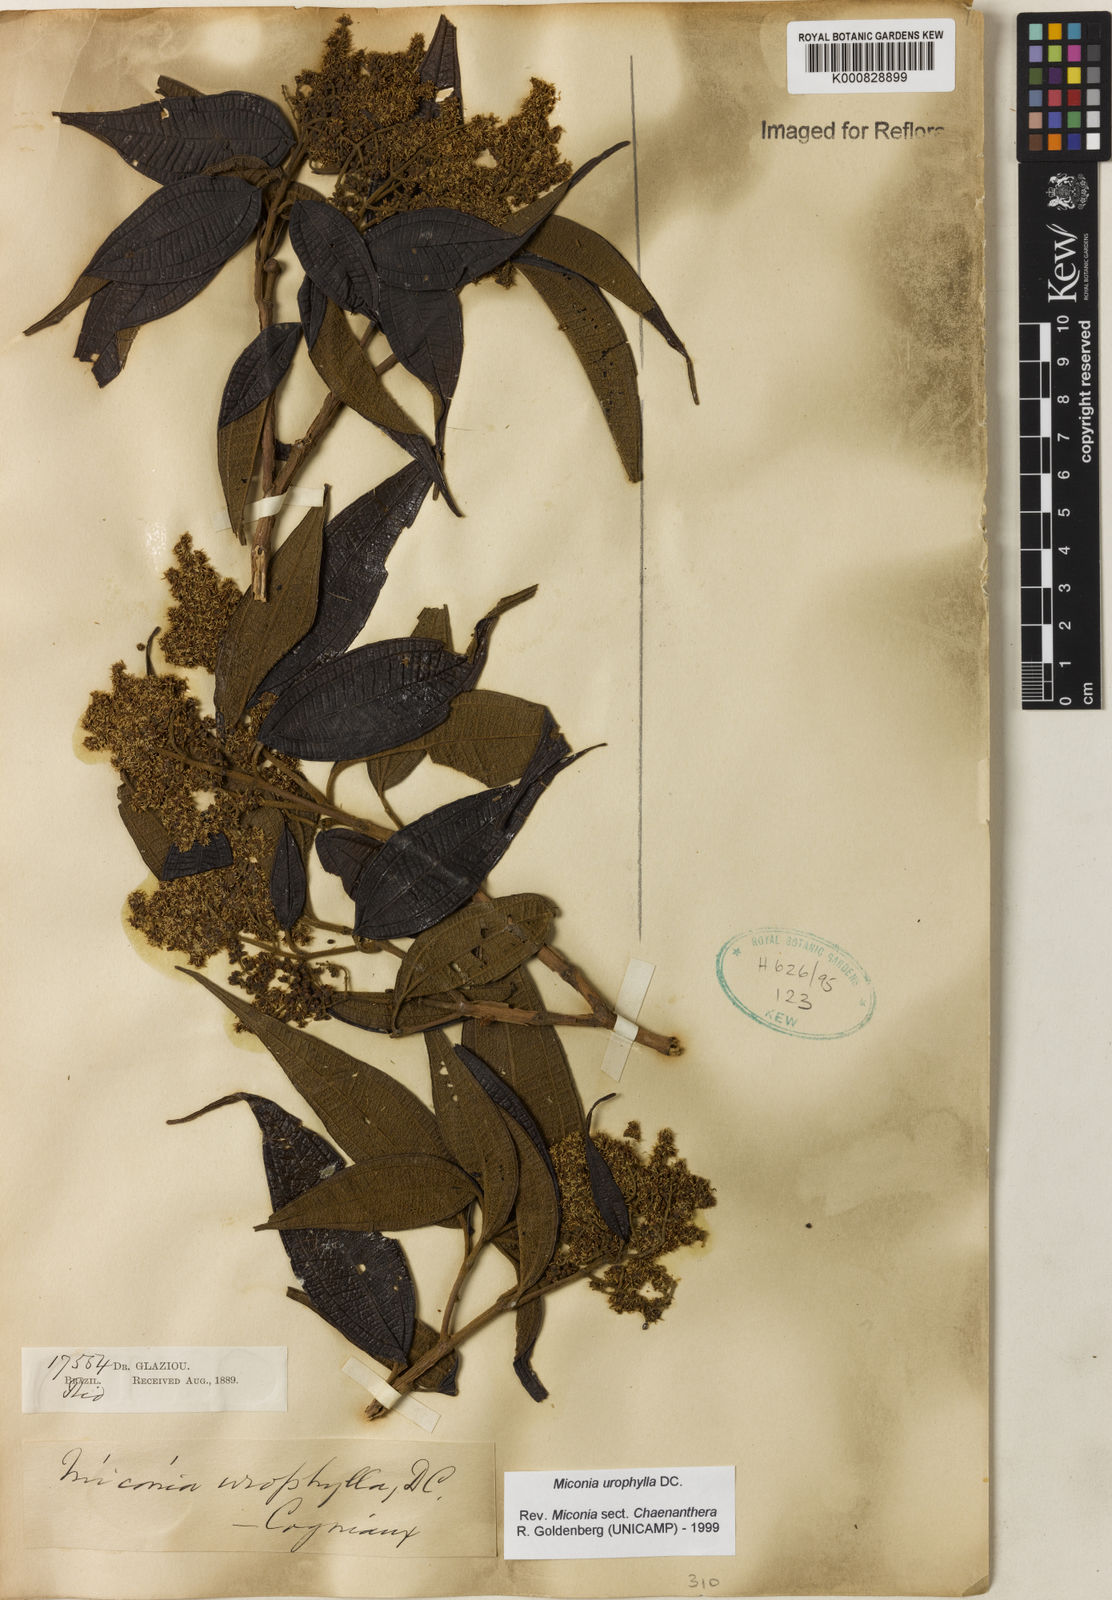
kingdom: Plantae
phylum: Tracheophyta
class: Magnoliopsida
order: Myrtales
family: Melastomataceae
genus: Miconia
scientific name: Miconia urophylla
